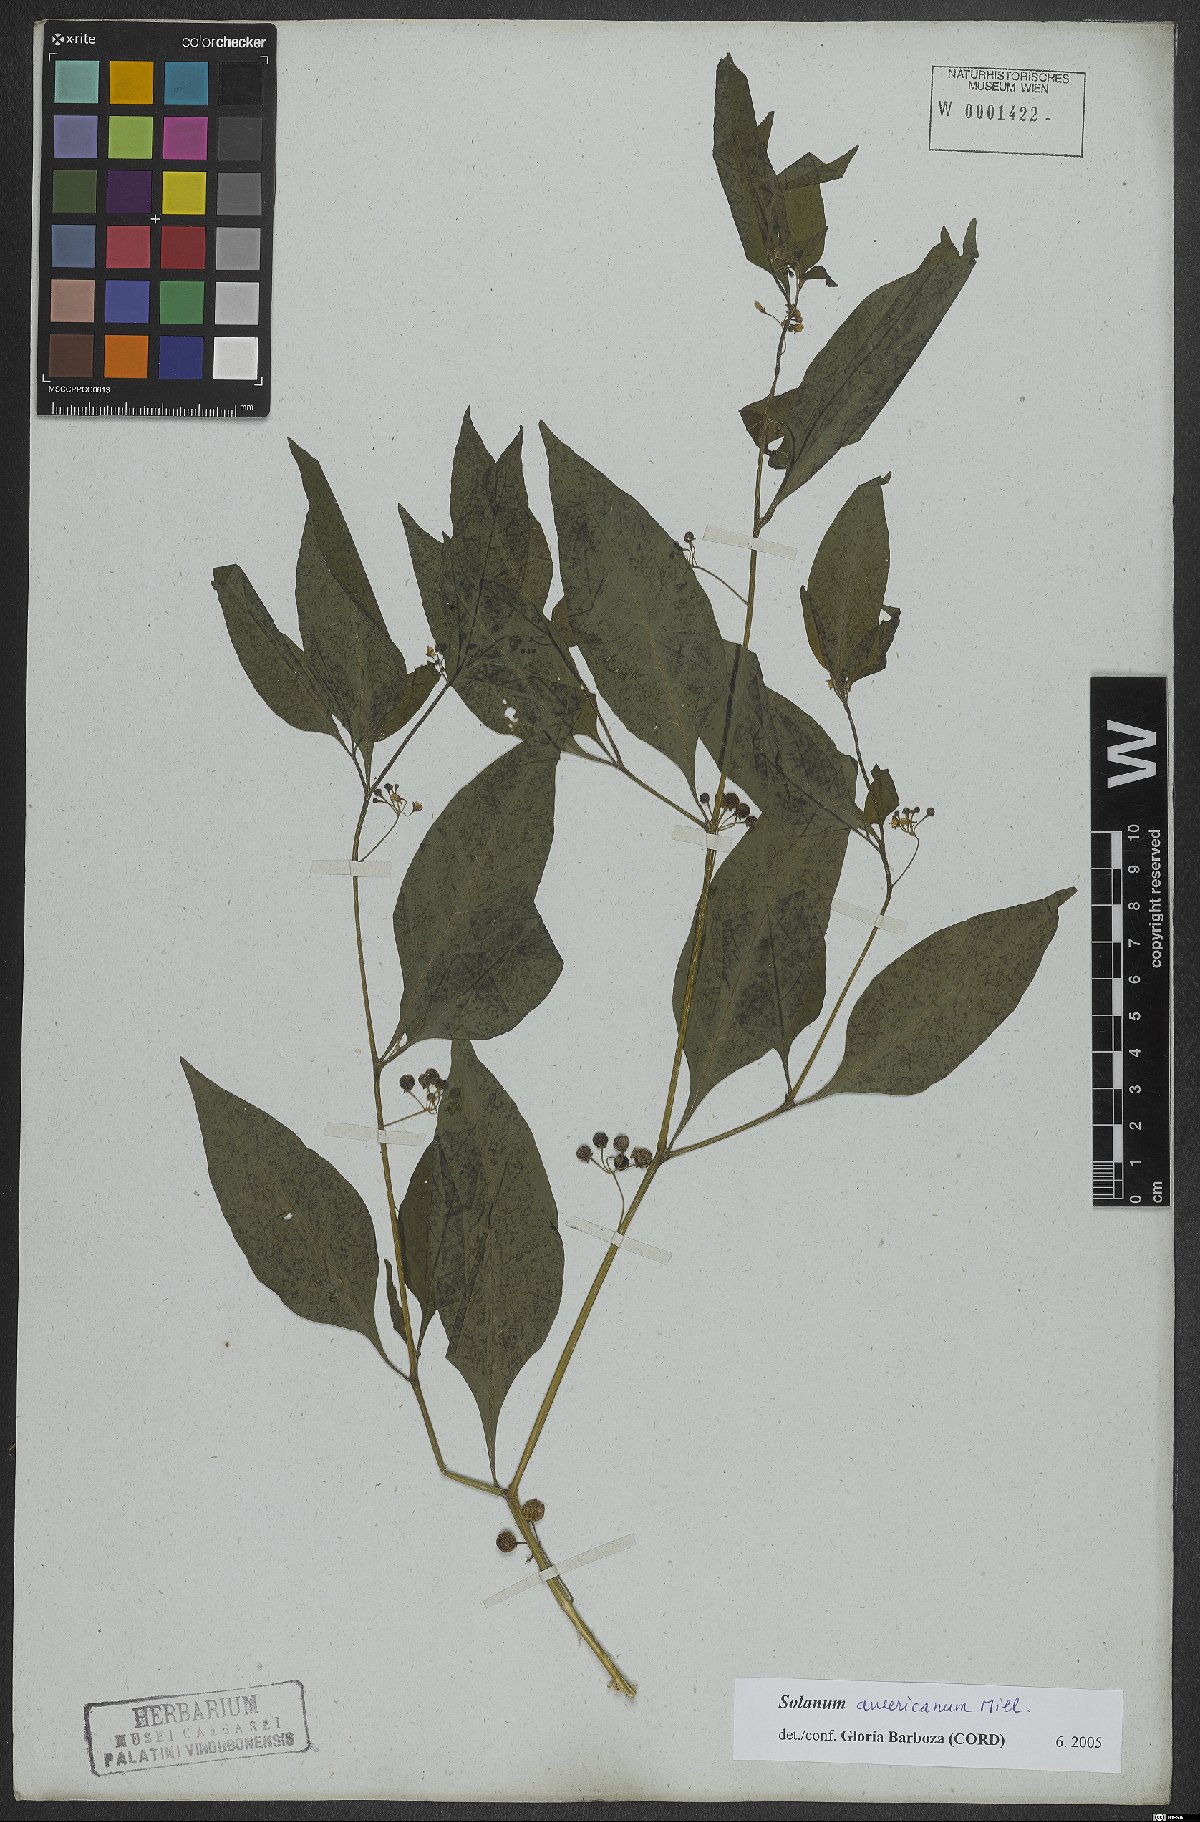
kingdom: Plantae
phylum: Tracheophyta
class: Magnoliopsida
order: Solanales
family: Solanaceae
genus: Solanum
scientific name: Solanum americanum
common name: American black nightshade
